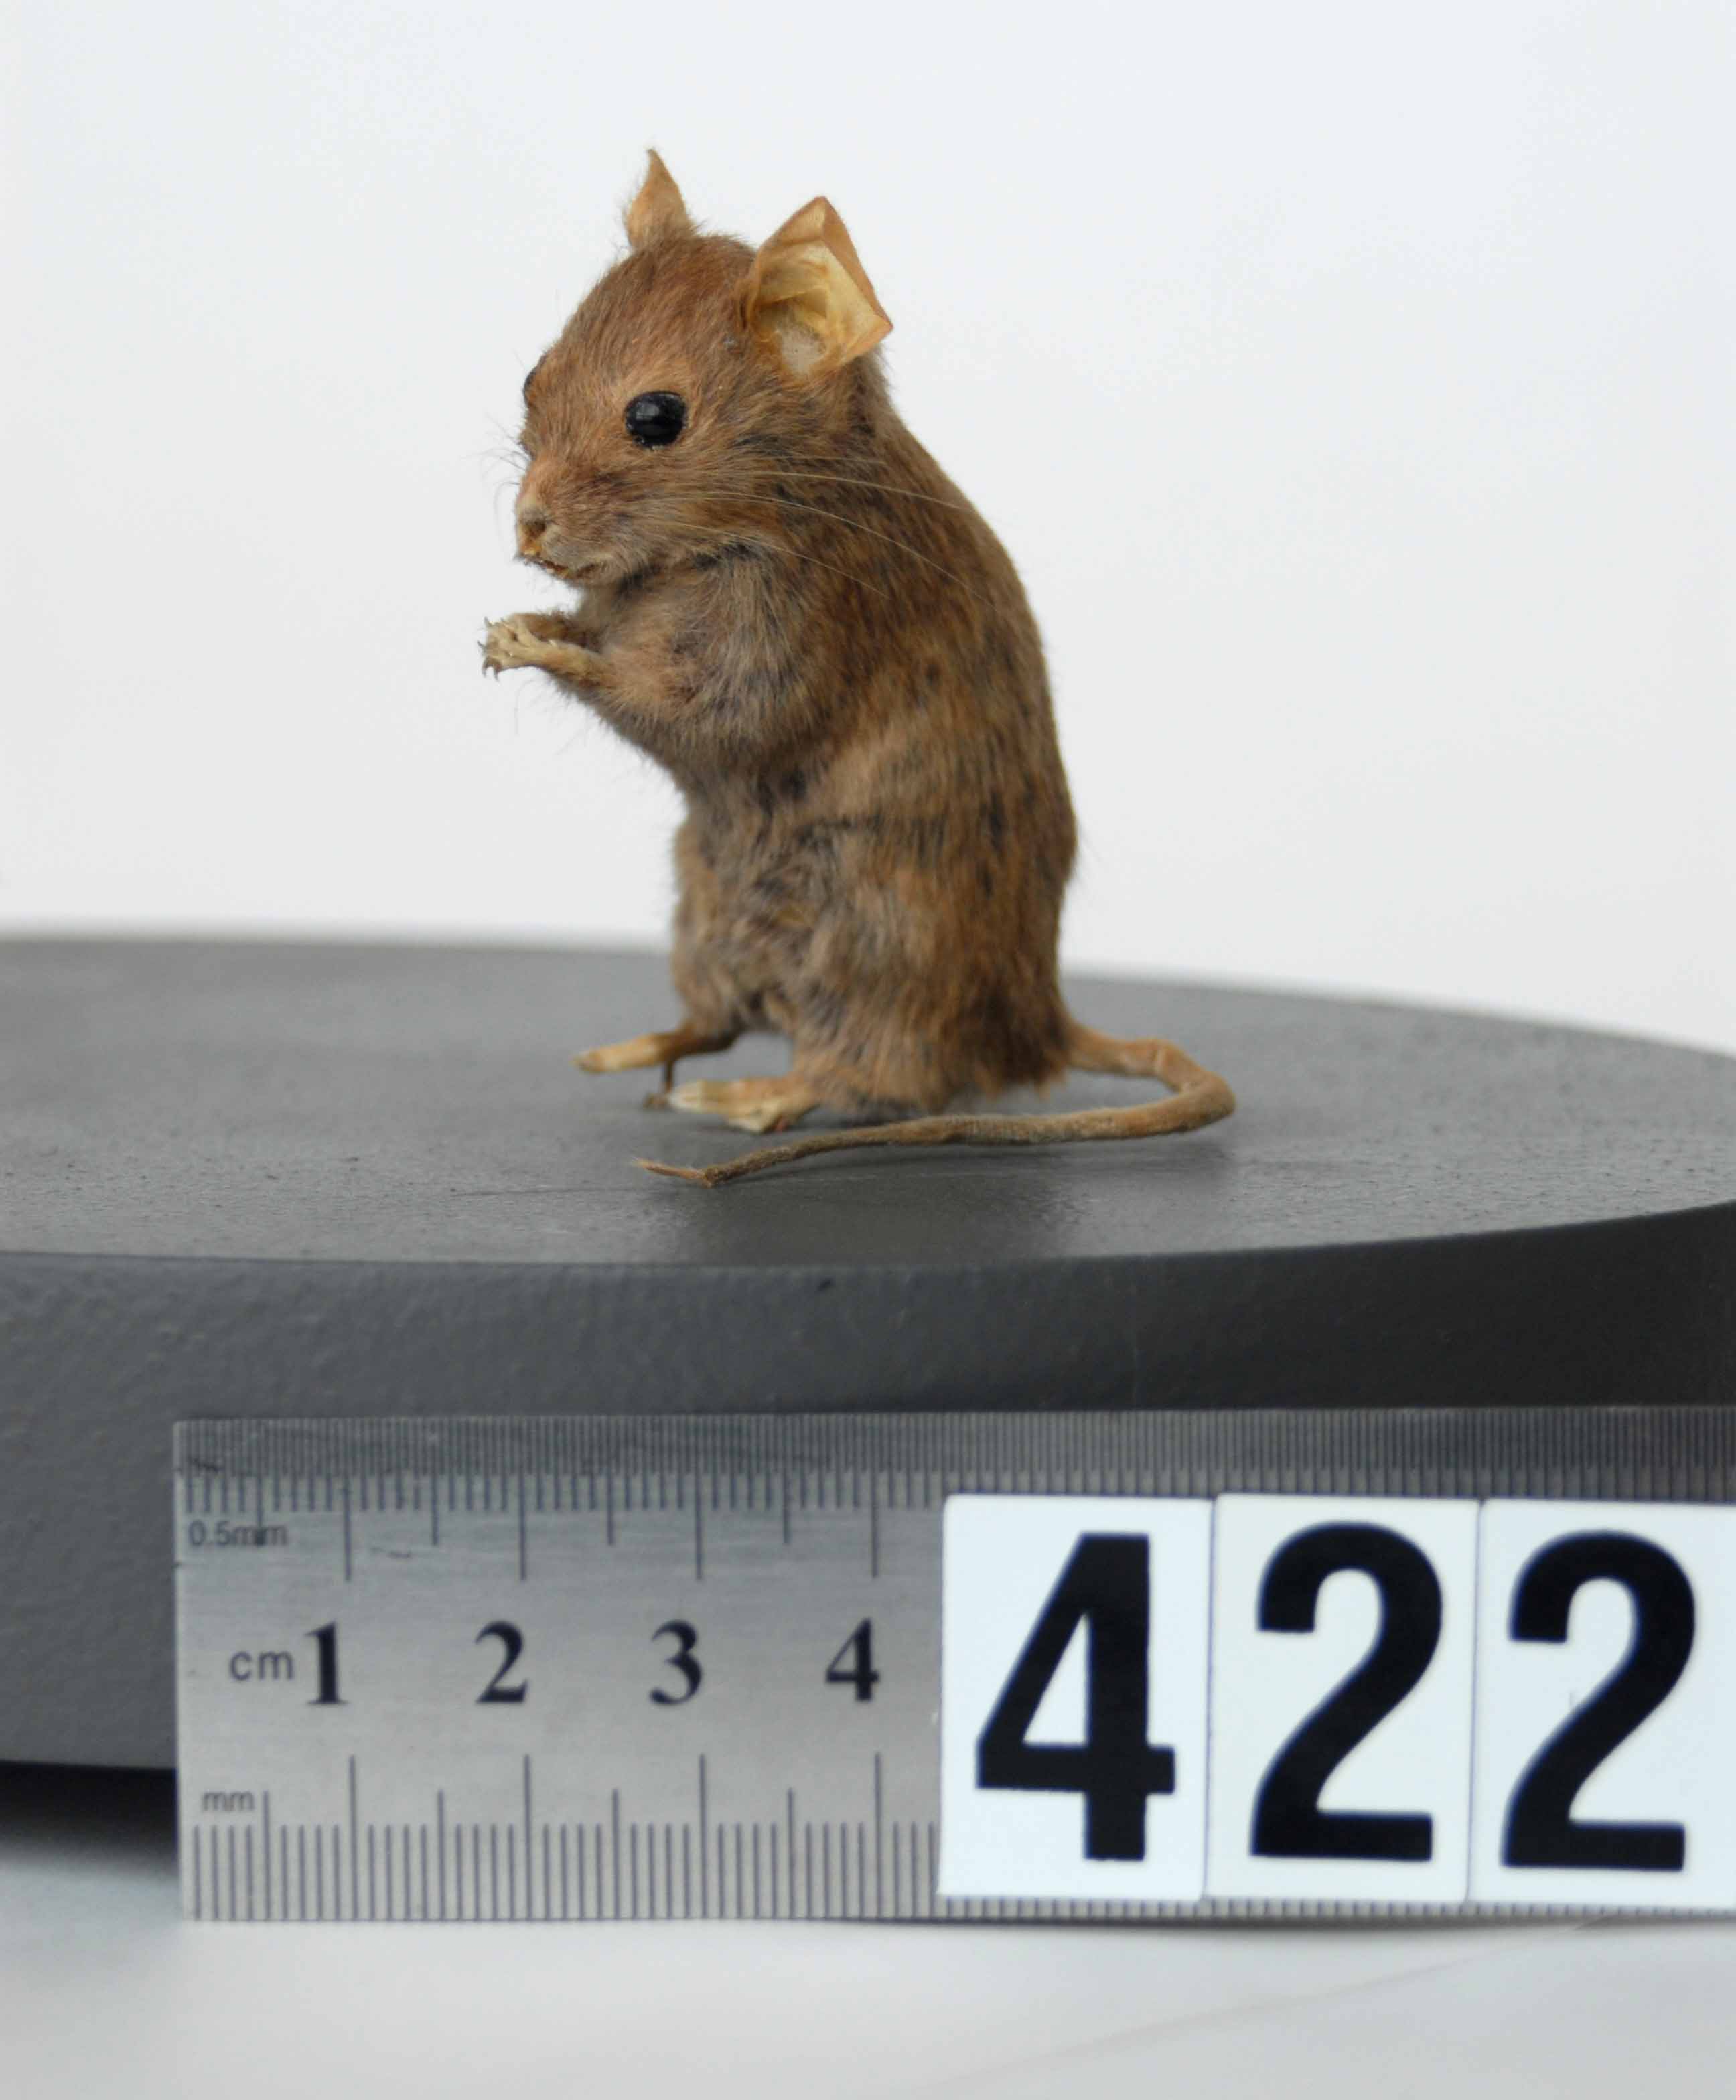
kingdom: Animalia
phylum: Chordata
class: Mammalia
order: Rodentia
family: Muridae
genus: Mus
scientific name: Mus musculus
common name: House mouse
